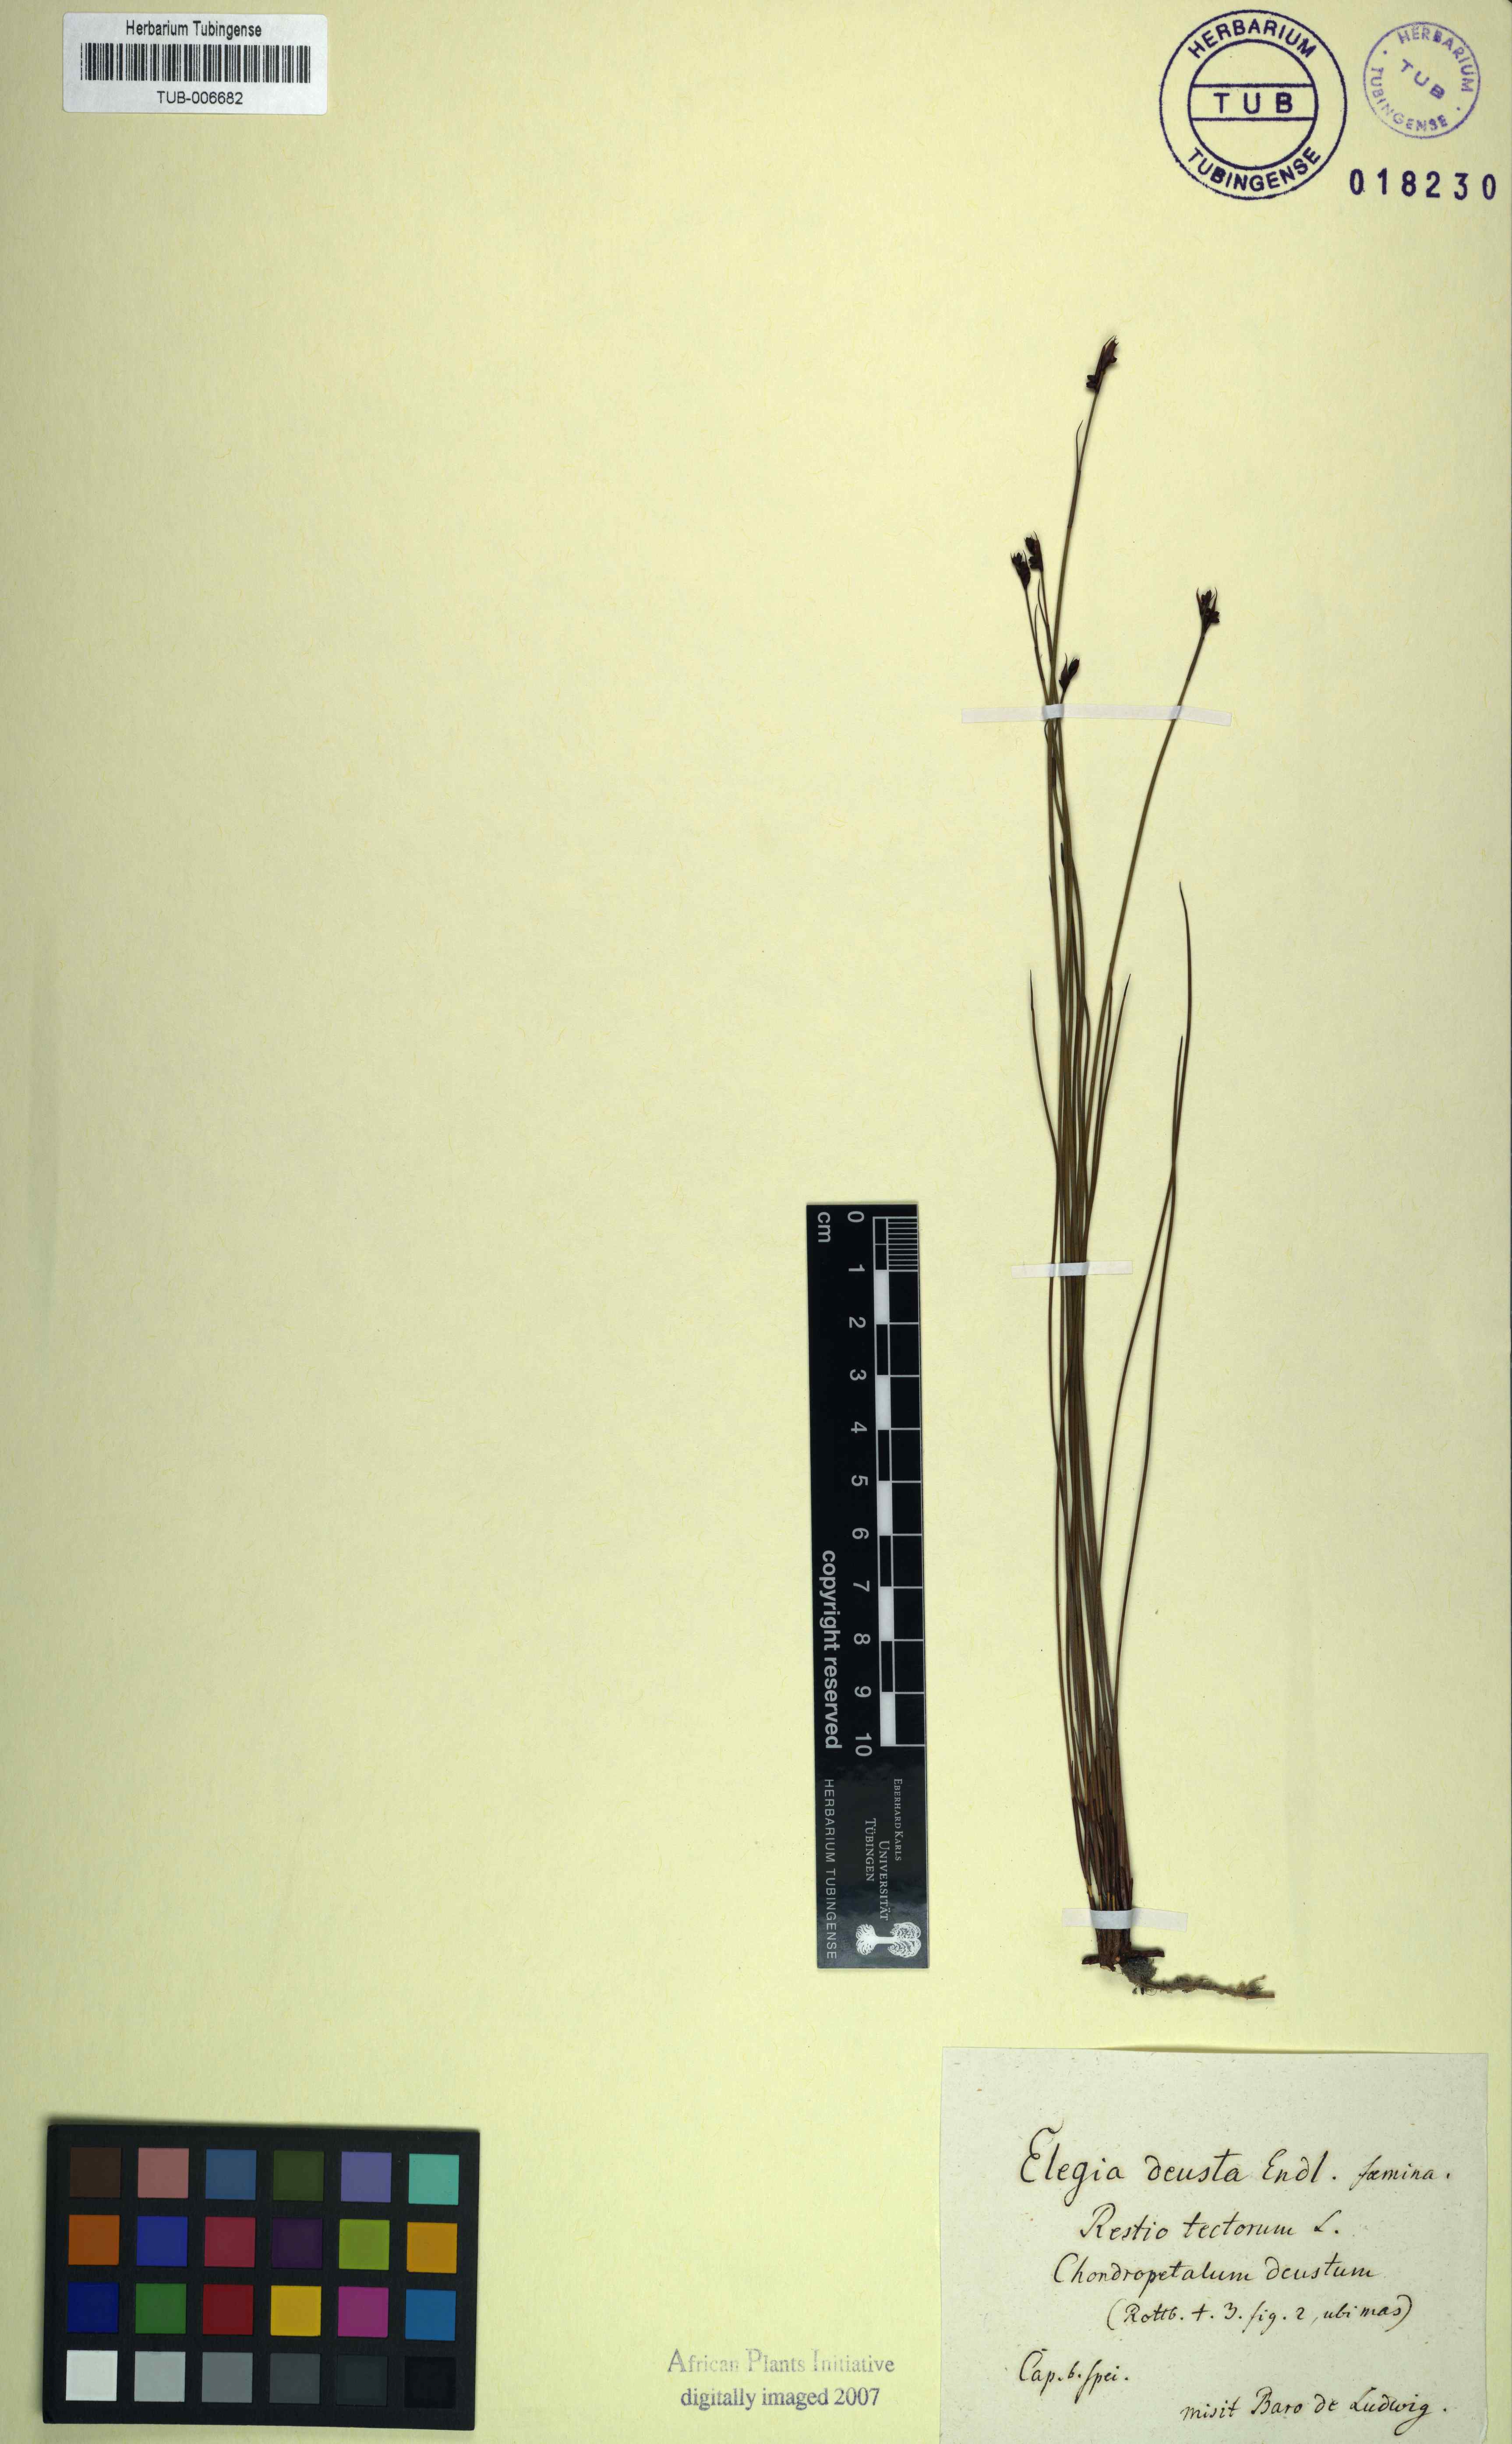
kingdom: Plantae
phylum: Tracheophyta
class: Liliopsida
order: Poales
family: Restionaceae
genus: Elegia
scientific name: Elegia deusta
